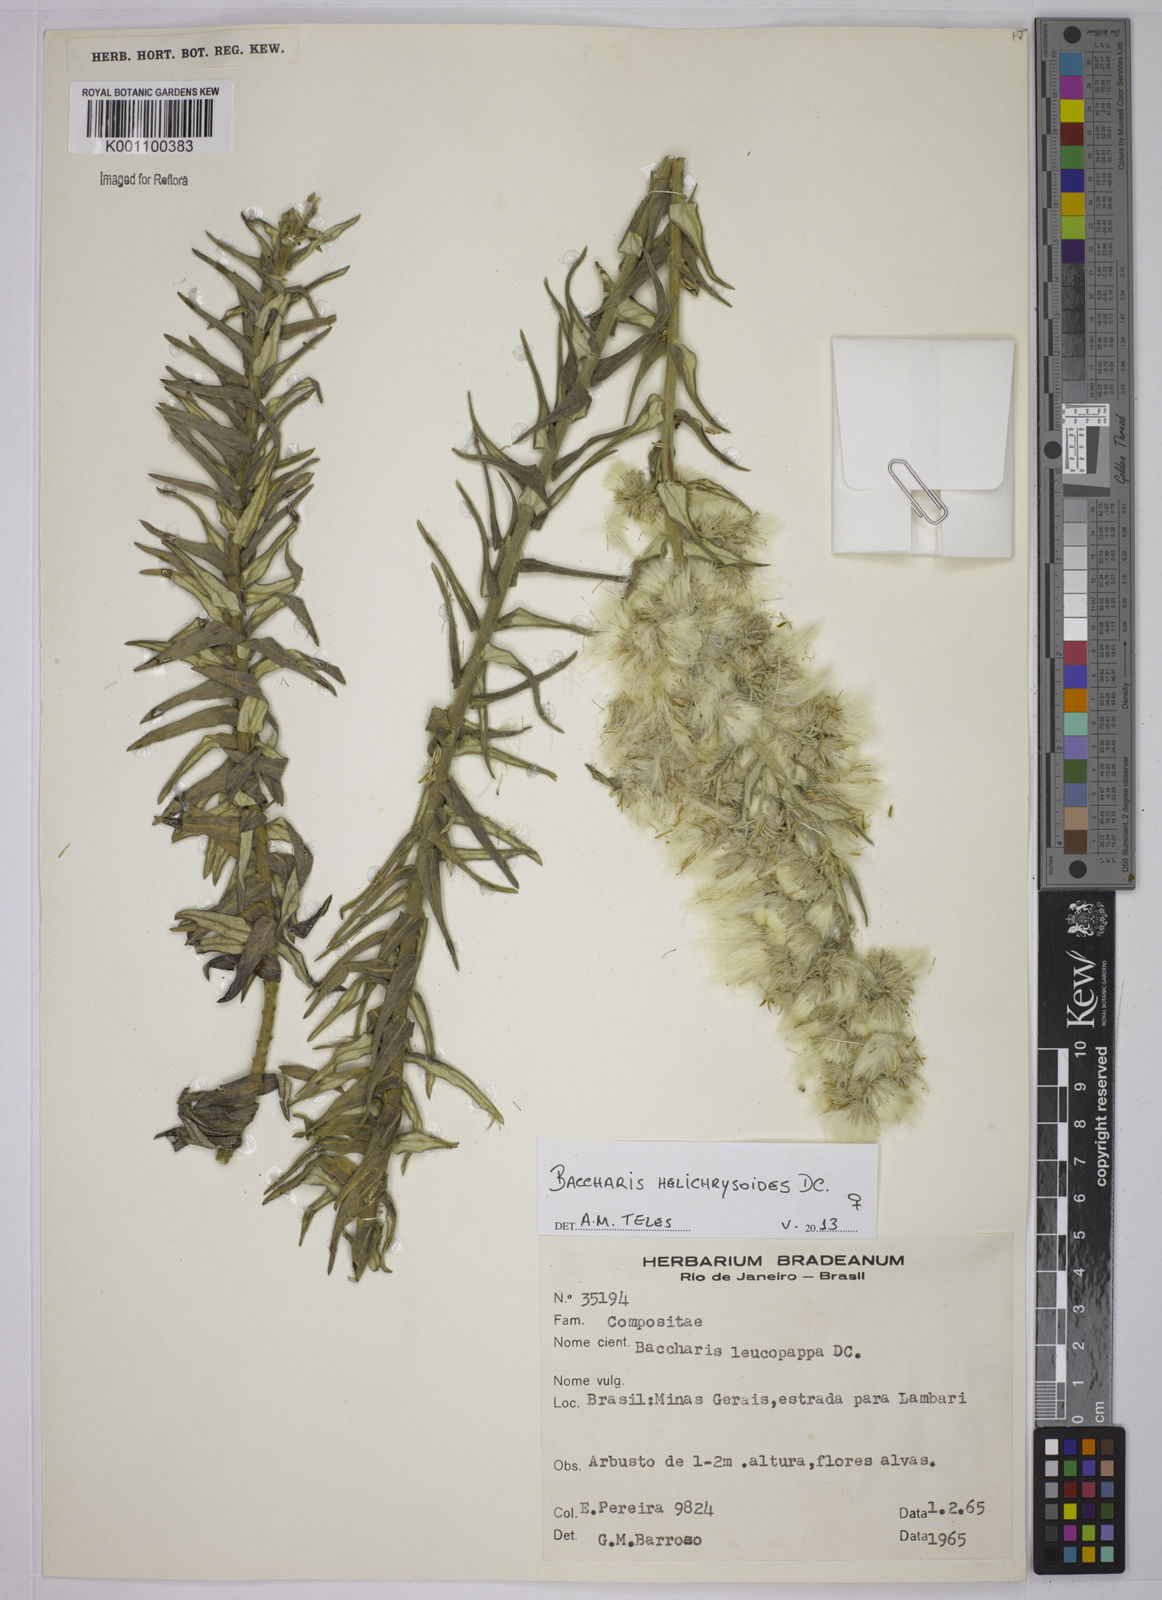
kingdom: Plantae
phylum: Tracheophyta
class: Magnoliopsida
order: Asterales
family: Asteraceae
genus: Baccharis
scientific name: Baccharis leucopappa
